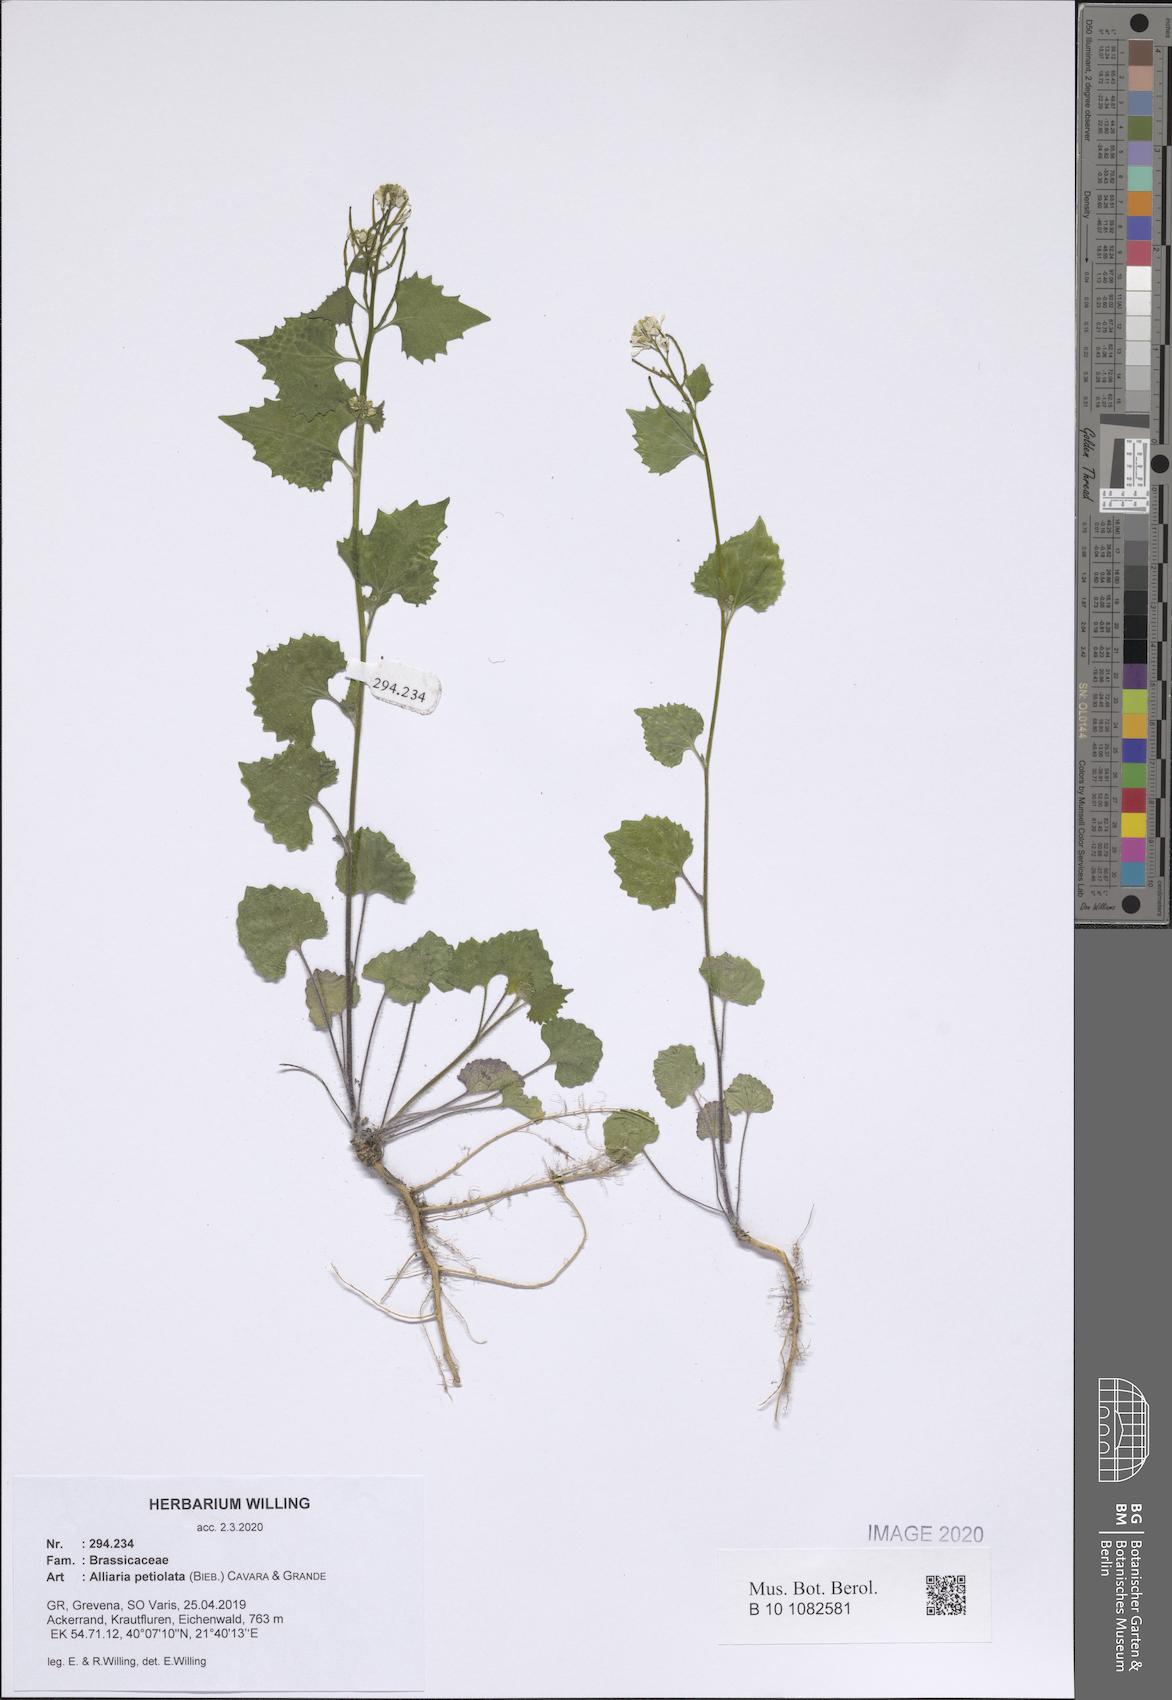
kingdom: Plantae
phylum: Tracheophyta
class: Magnoliopsida
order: Brassicales
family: Brassicaceae
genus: Alliaria
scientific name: Alliaria petiolata
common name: Garlic mustard
